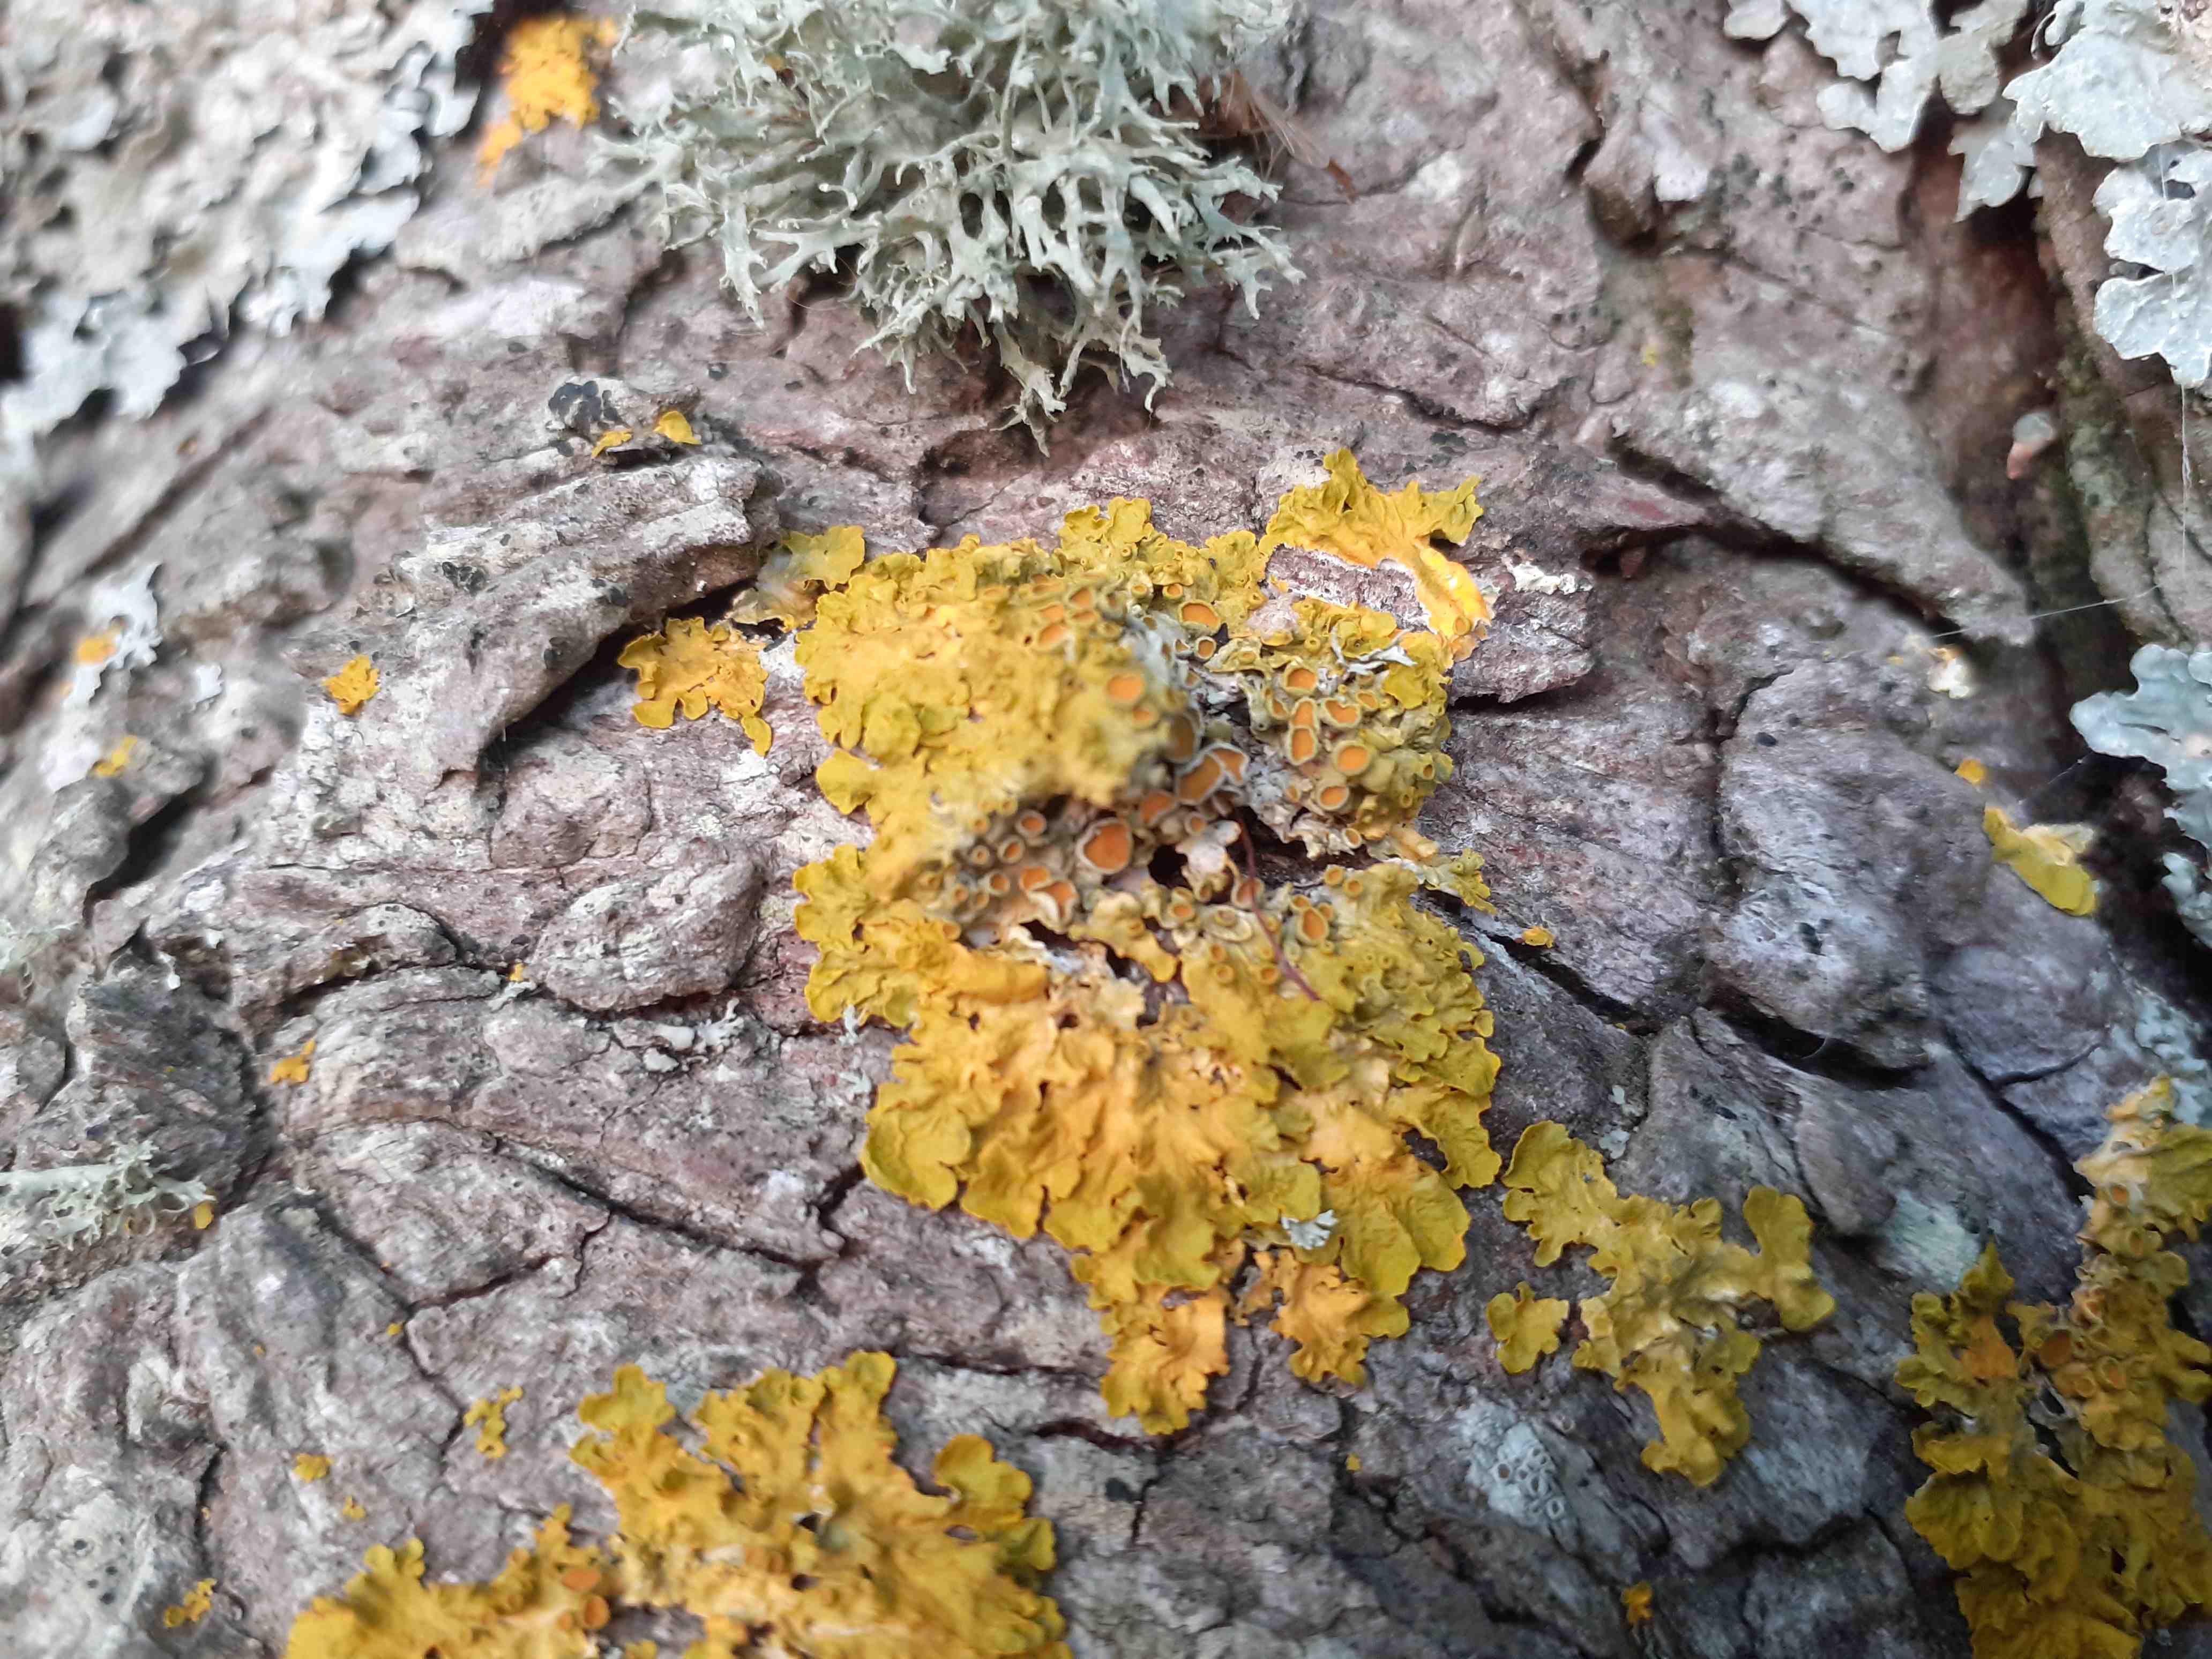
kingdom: Fungi
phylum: Ascomycota
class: Lecanoromycetes
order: Teloschistales
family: Teloschistaceae
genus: Xanthoria
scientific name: Xanthoria parietina
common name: almindelig væggelav
